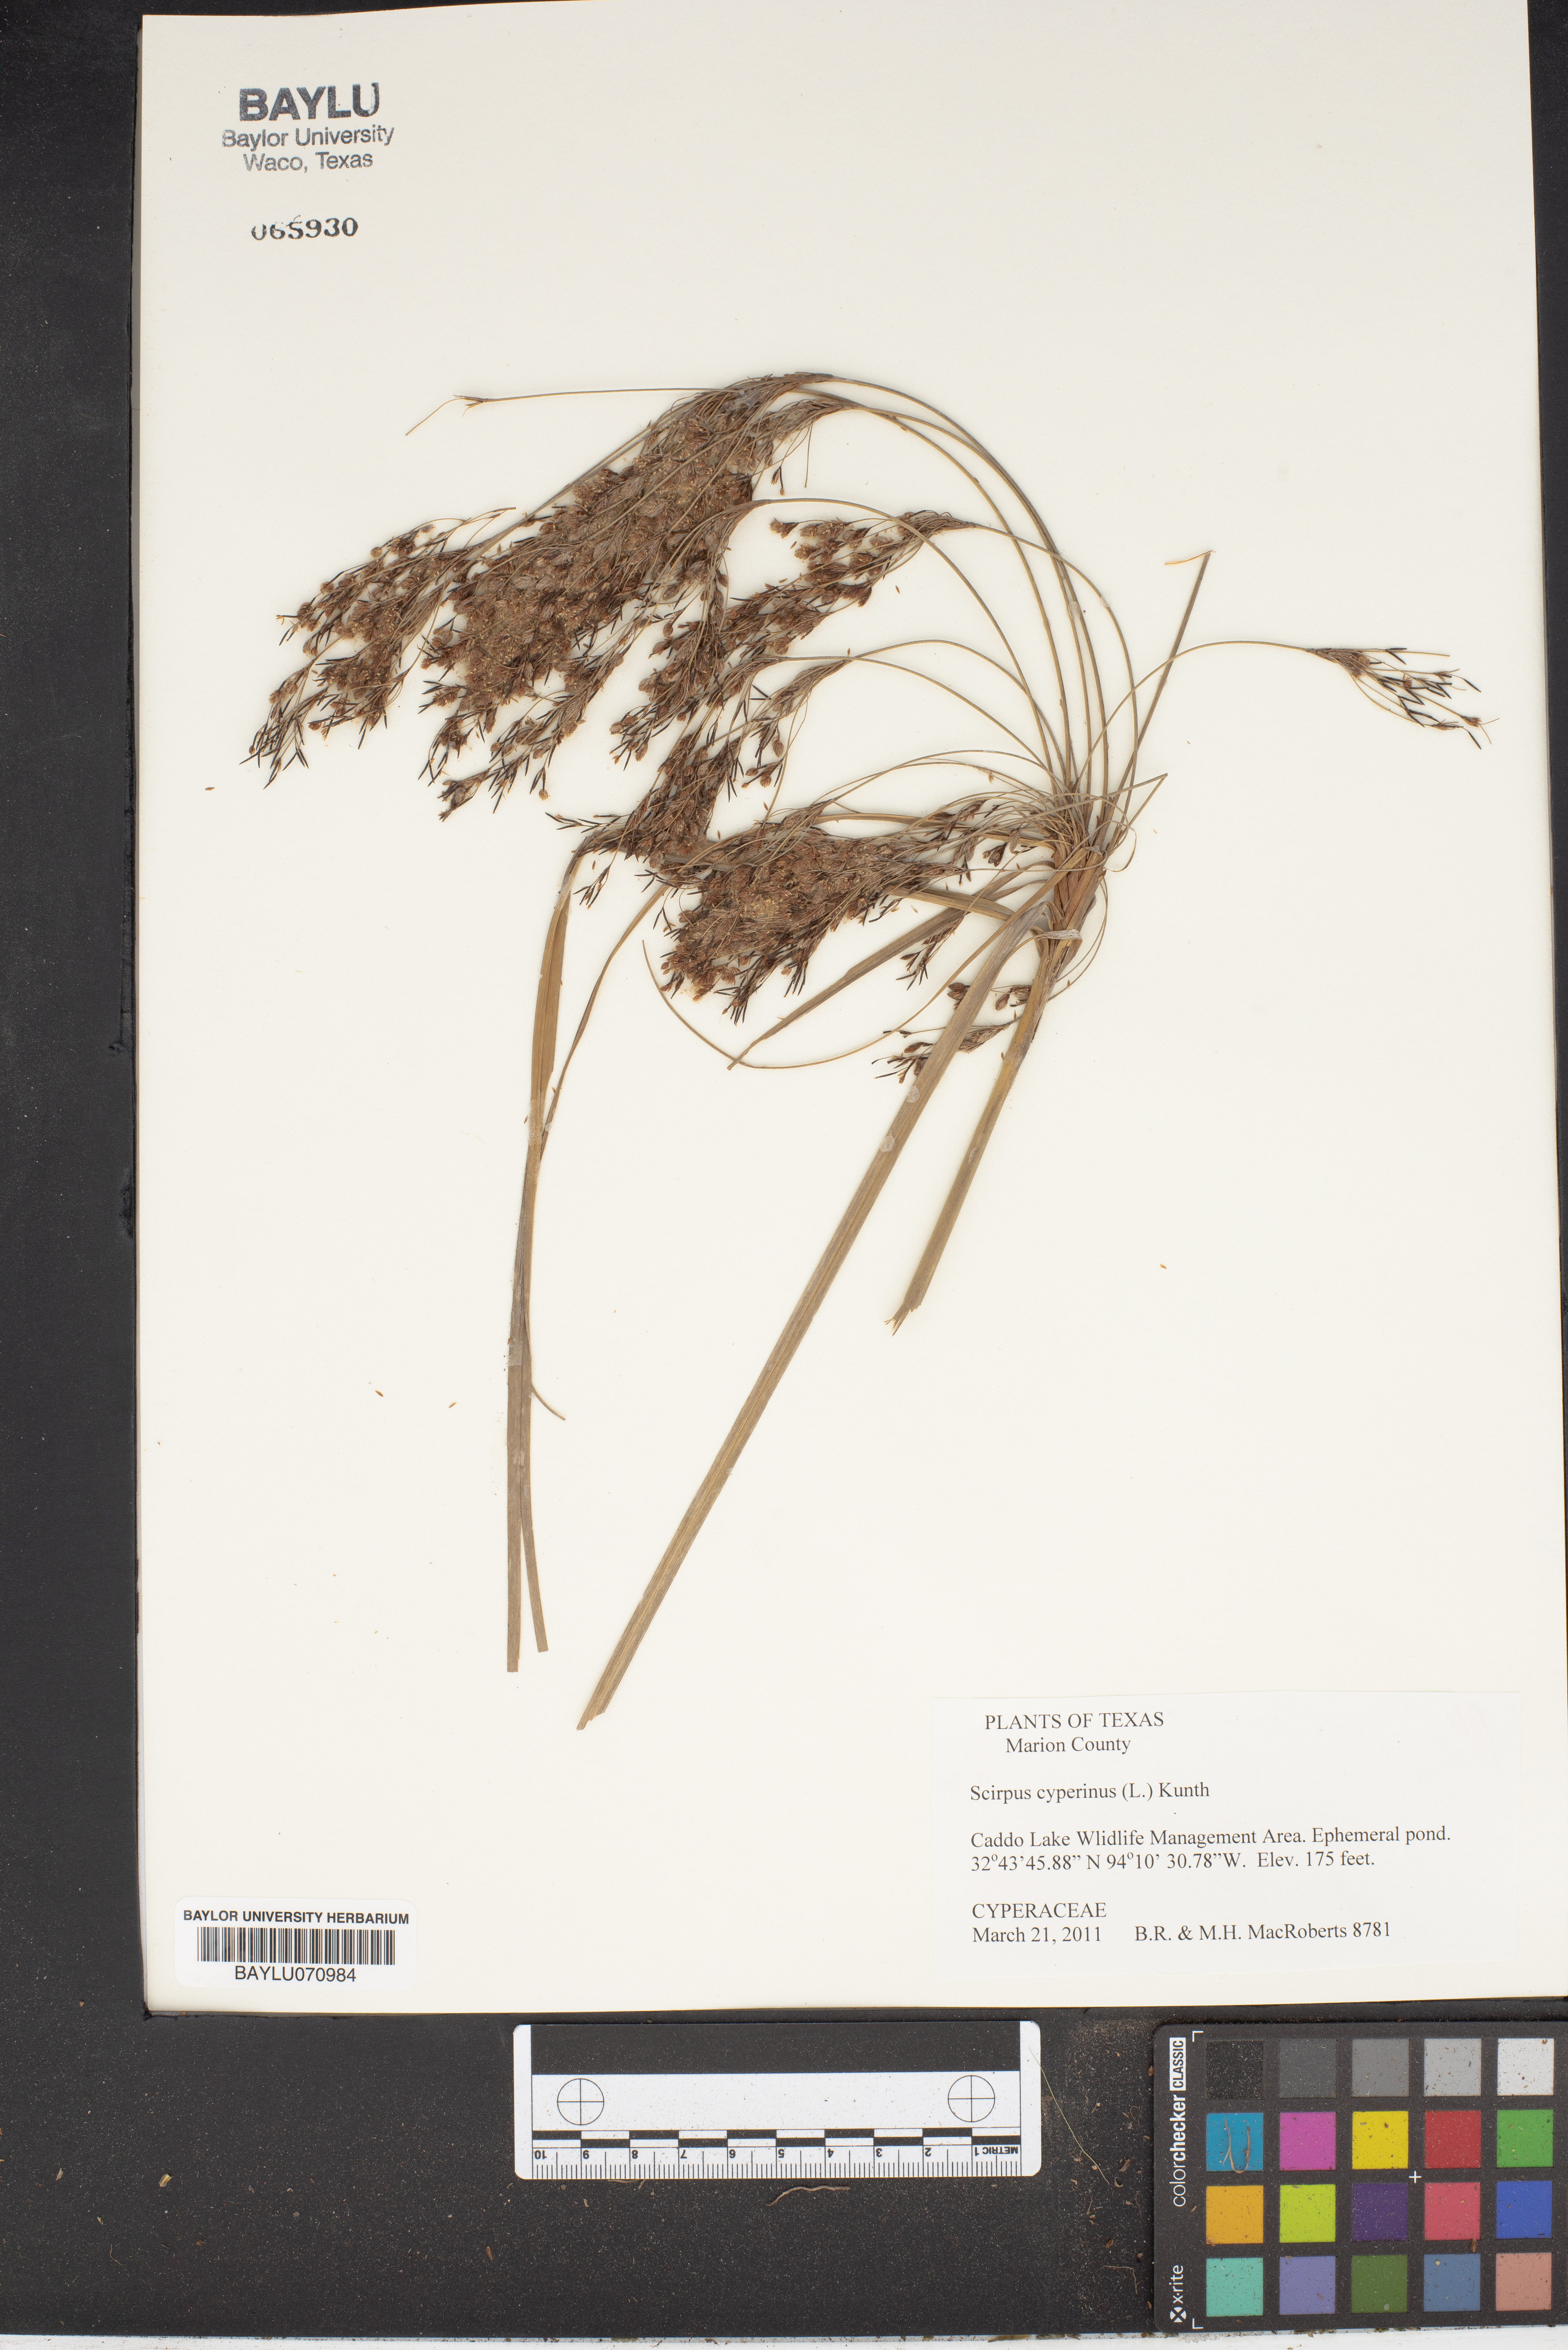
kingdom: Plantae
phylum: Tracheophyta
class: Liliopsida
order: Poales
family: Cyperaceae
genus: Scirpus
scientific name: Scirpus cyperinus
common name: Black-sheathed bulrush
